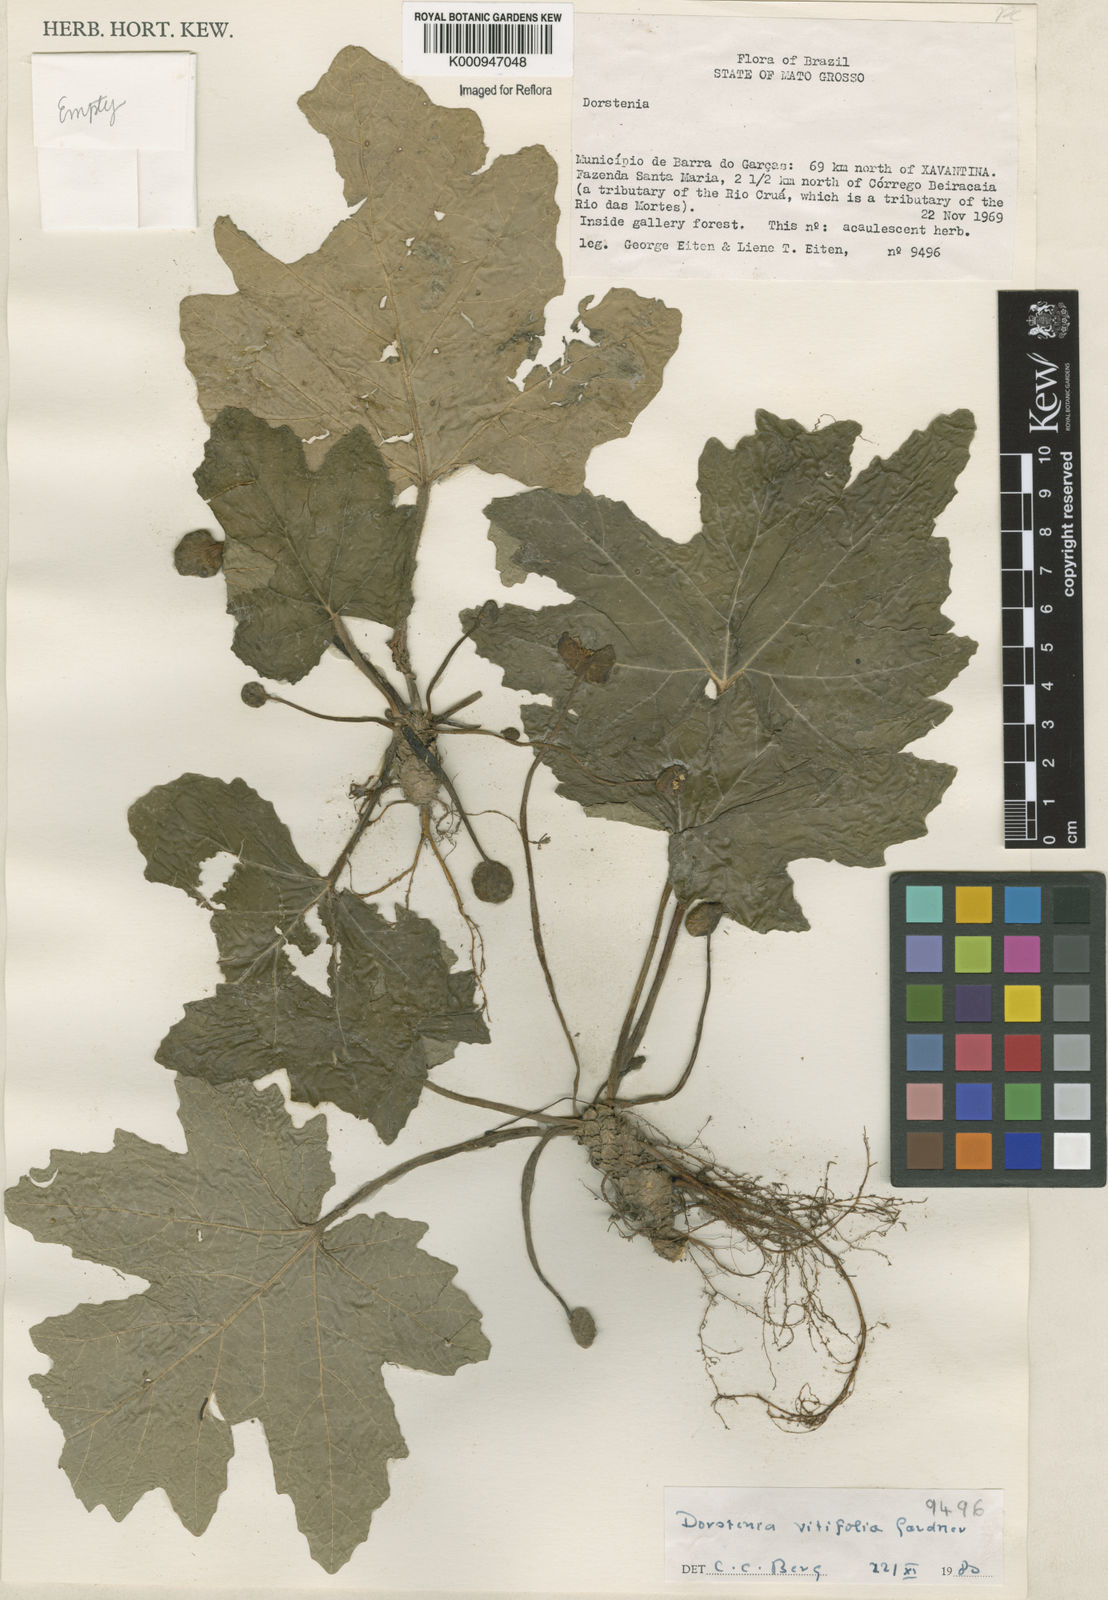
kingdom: Plantae
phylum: Tracheophyta
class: Magnoliopsida
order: Rosales
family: Moraceae
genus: Dorstenia
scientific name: Dorstenia cayapia
